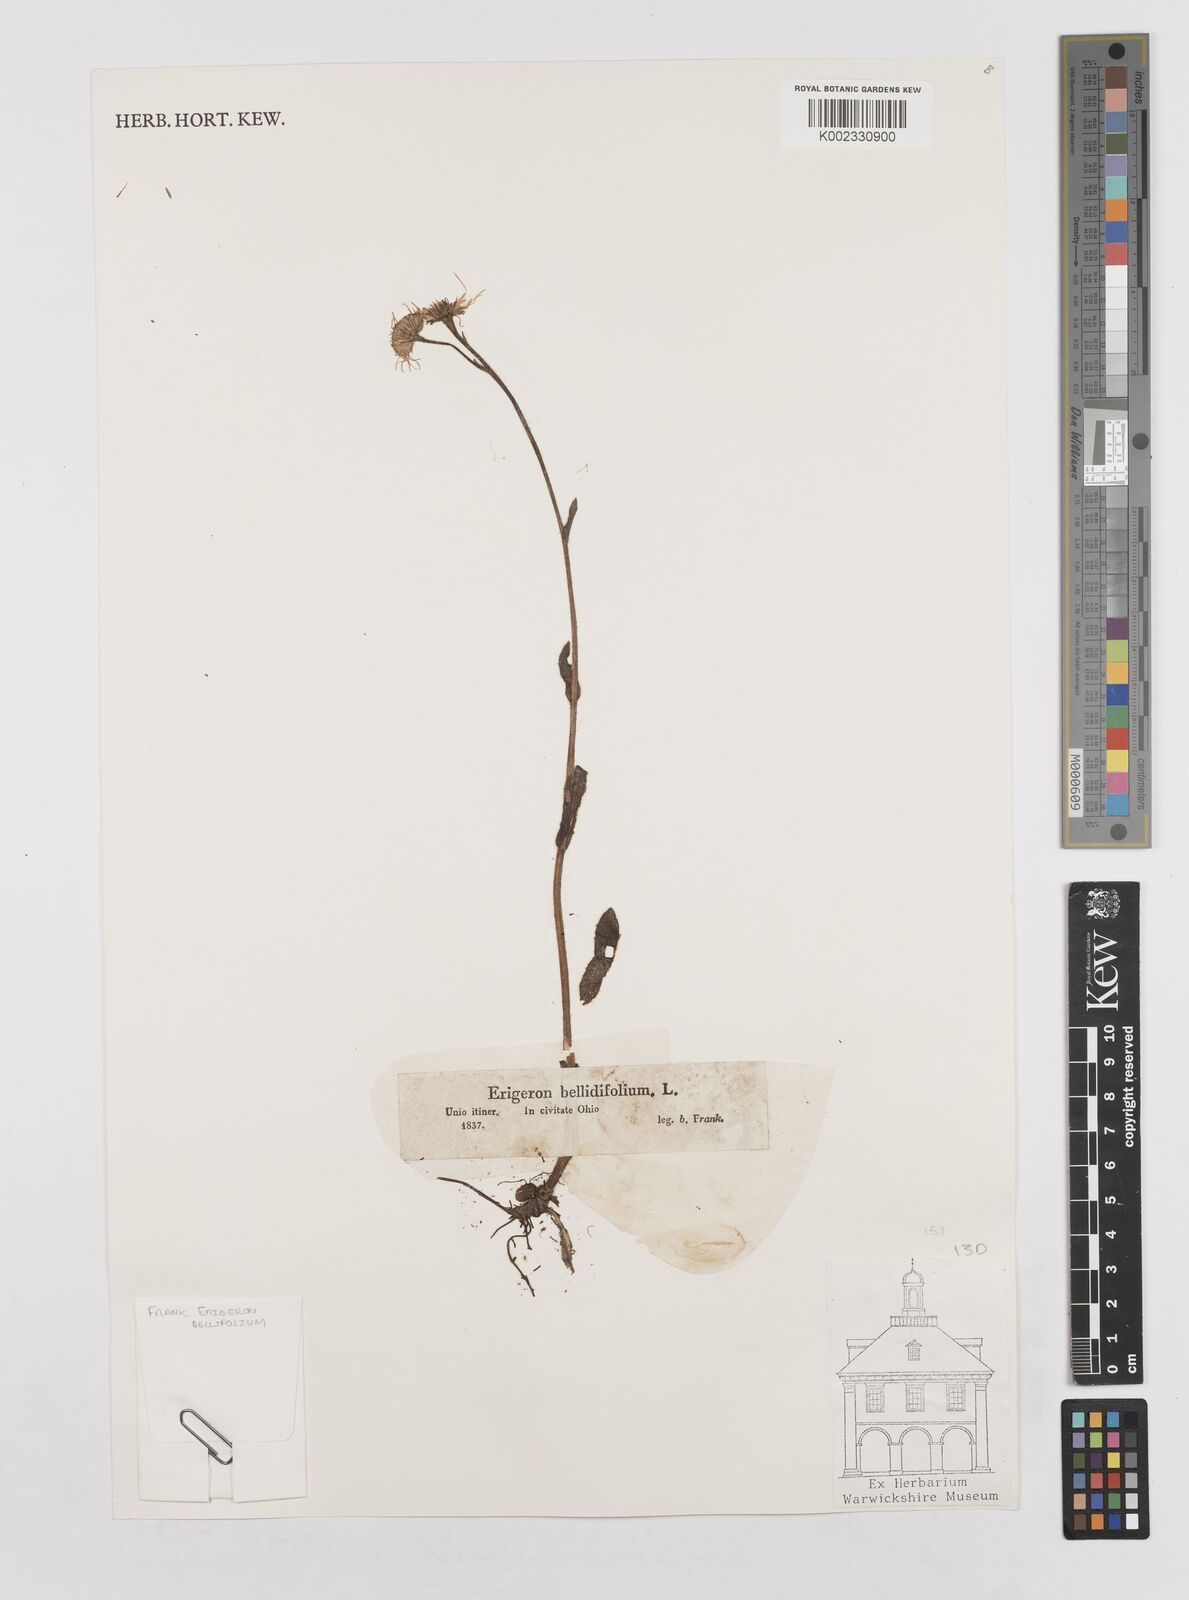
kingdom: Plantae
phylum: Tracheophyta
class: Magnoliopsida
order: Asterales
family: Asteraceae
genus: Erigeron
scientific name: Erigeron pulchellus
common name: Hairy fleabane
